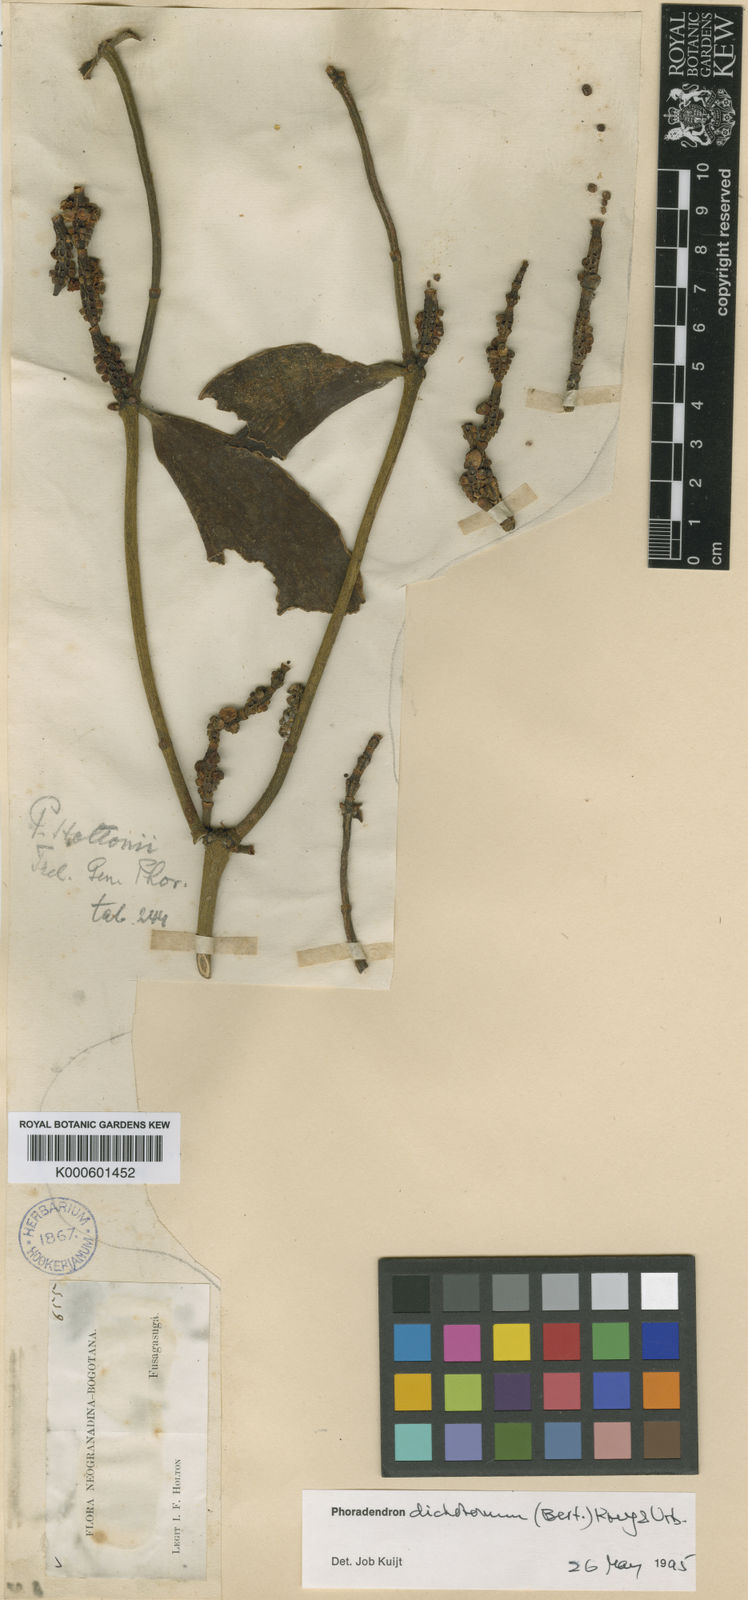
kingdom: Plantae
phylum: Tracheophyta
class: Magnoliopsida
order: Santalales
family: Viscaceae
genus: Phoradendron
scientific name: Phoradendron berteroanum
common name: Bertero's mistletoe
